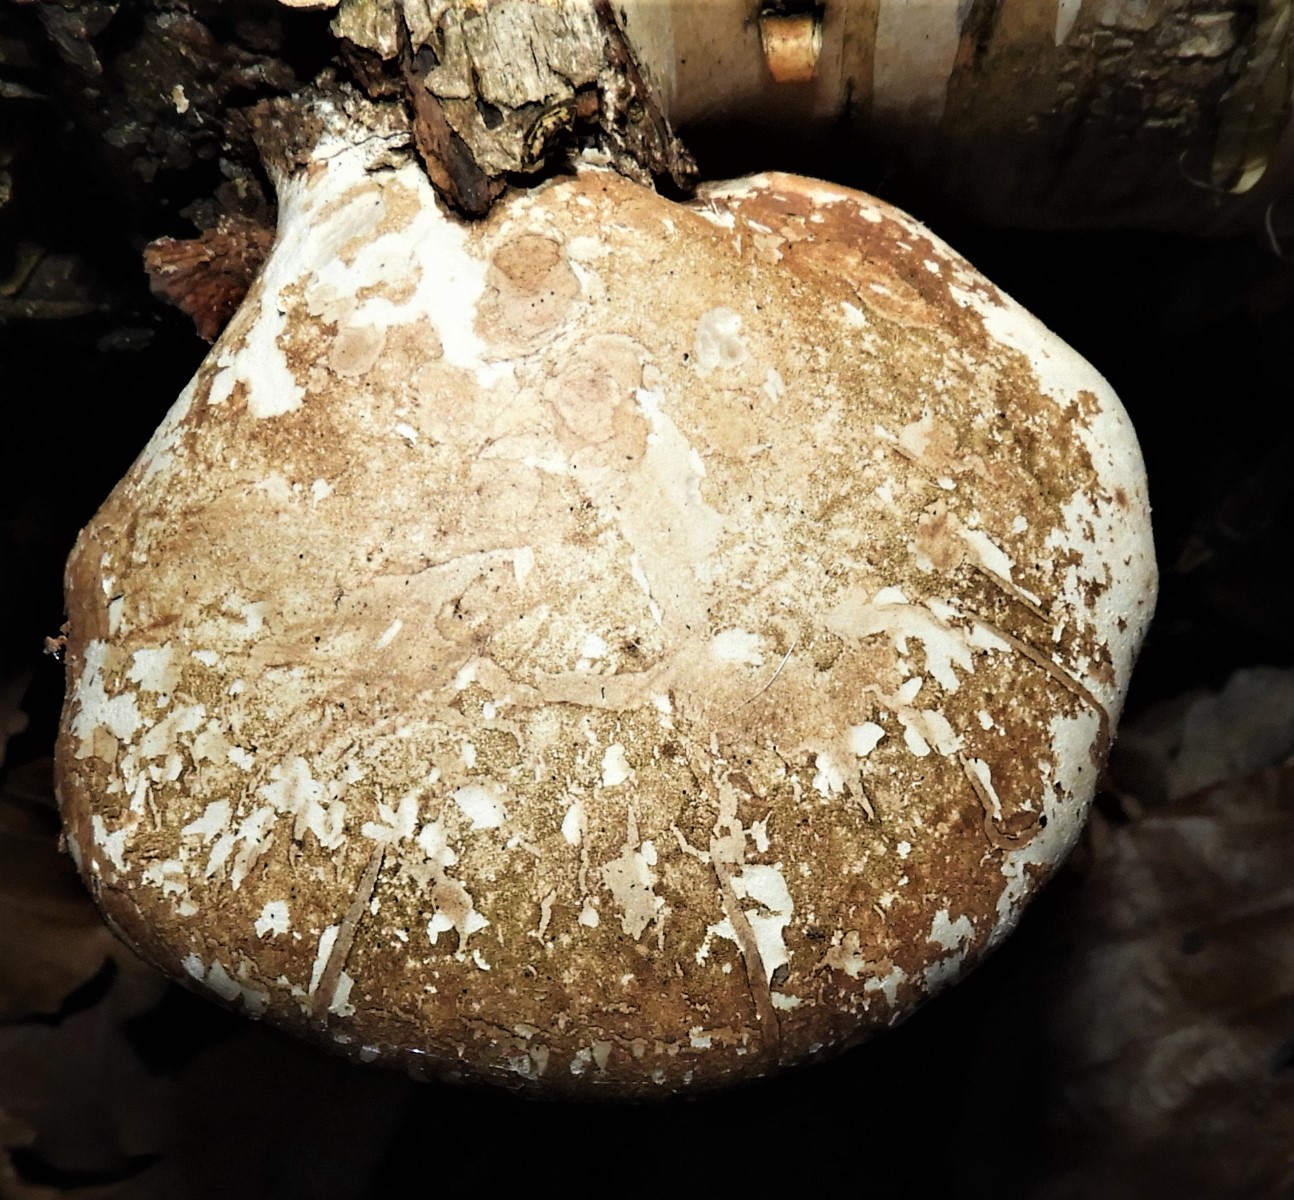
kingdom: Fungi
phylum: Basidiomycota
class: Agaricomycetes
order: Polyporales
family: Fomitopsidaceae
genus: Fomitopsis
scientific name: Fomitopsis betulina
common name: birkeporesvamp
